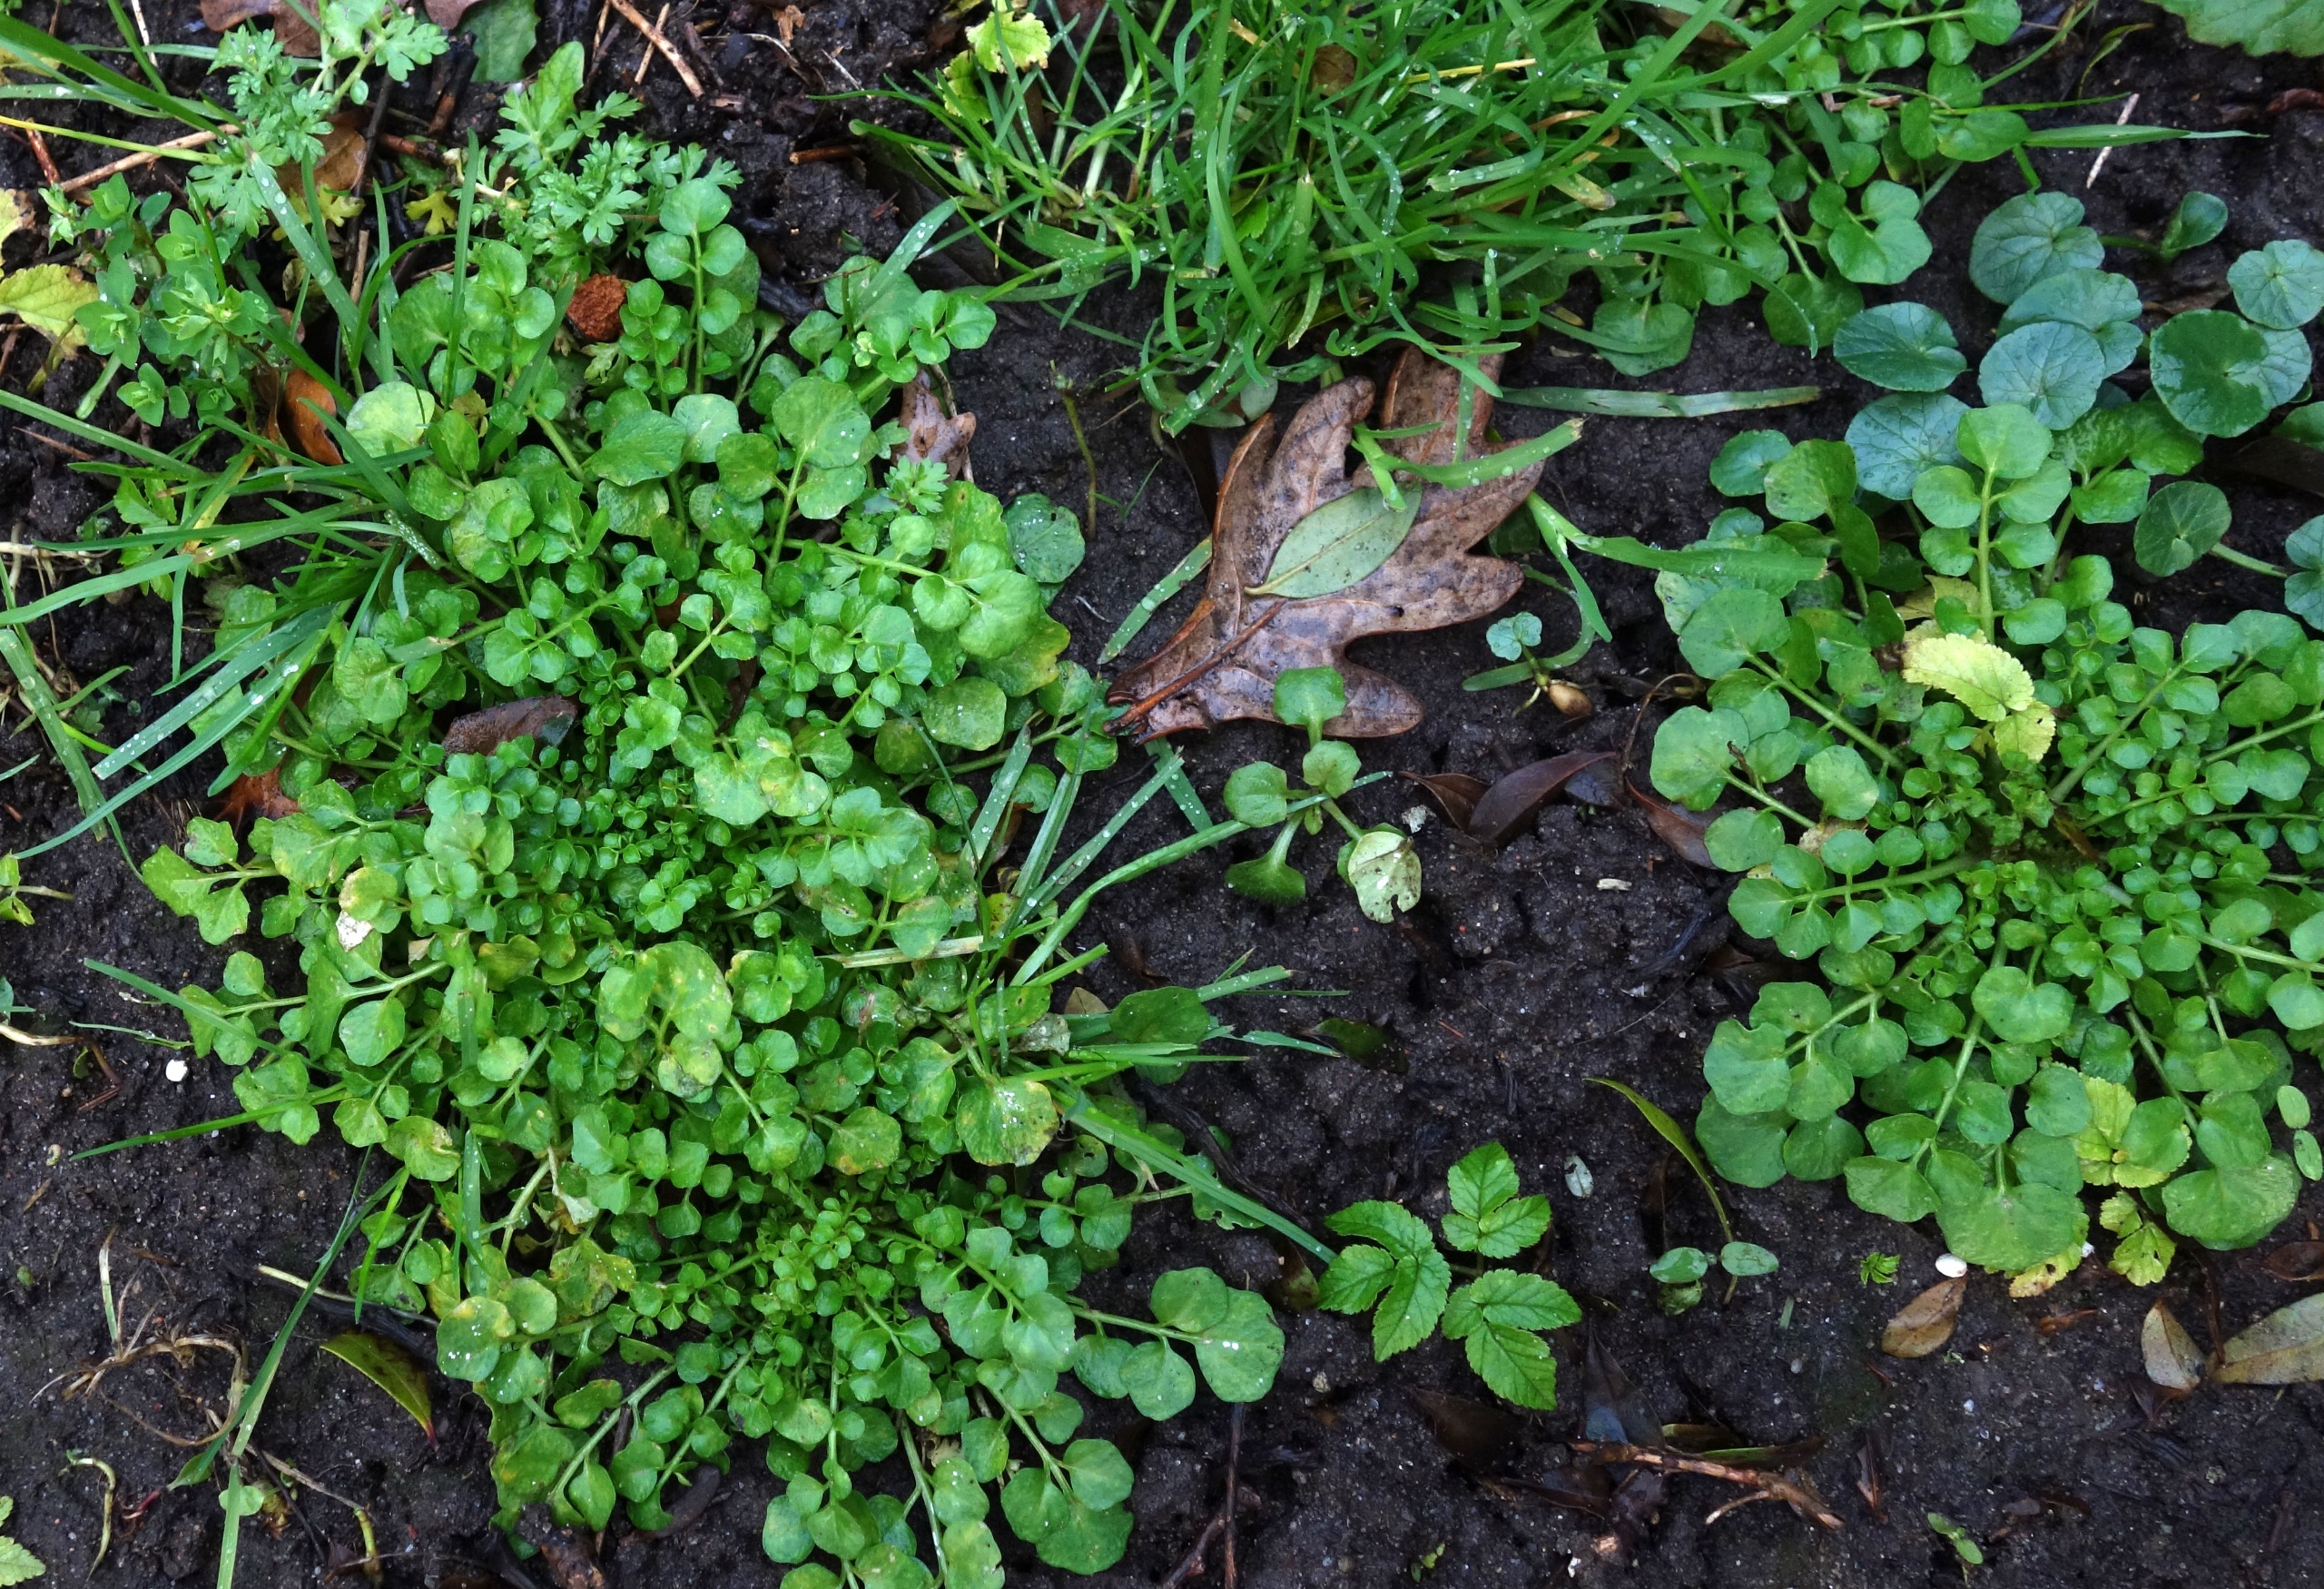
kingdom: Plantae
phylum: Tracheophyta
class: Magnoliopsida
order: Brassicales
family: Brassicaceae
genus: Cardamine
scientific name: Cardamine hirsuta
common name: Roset-springklap
